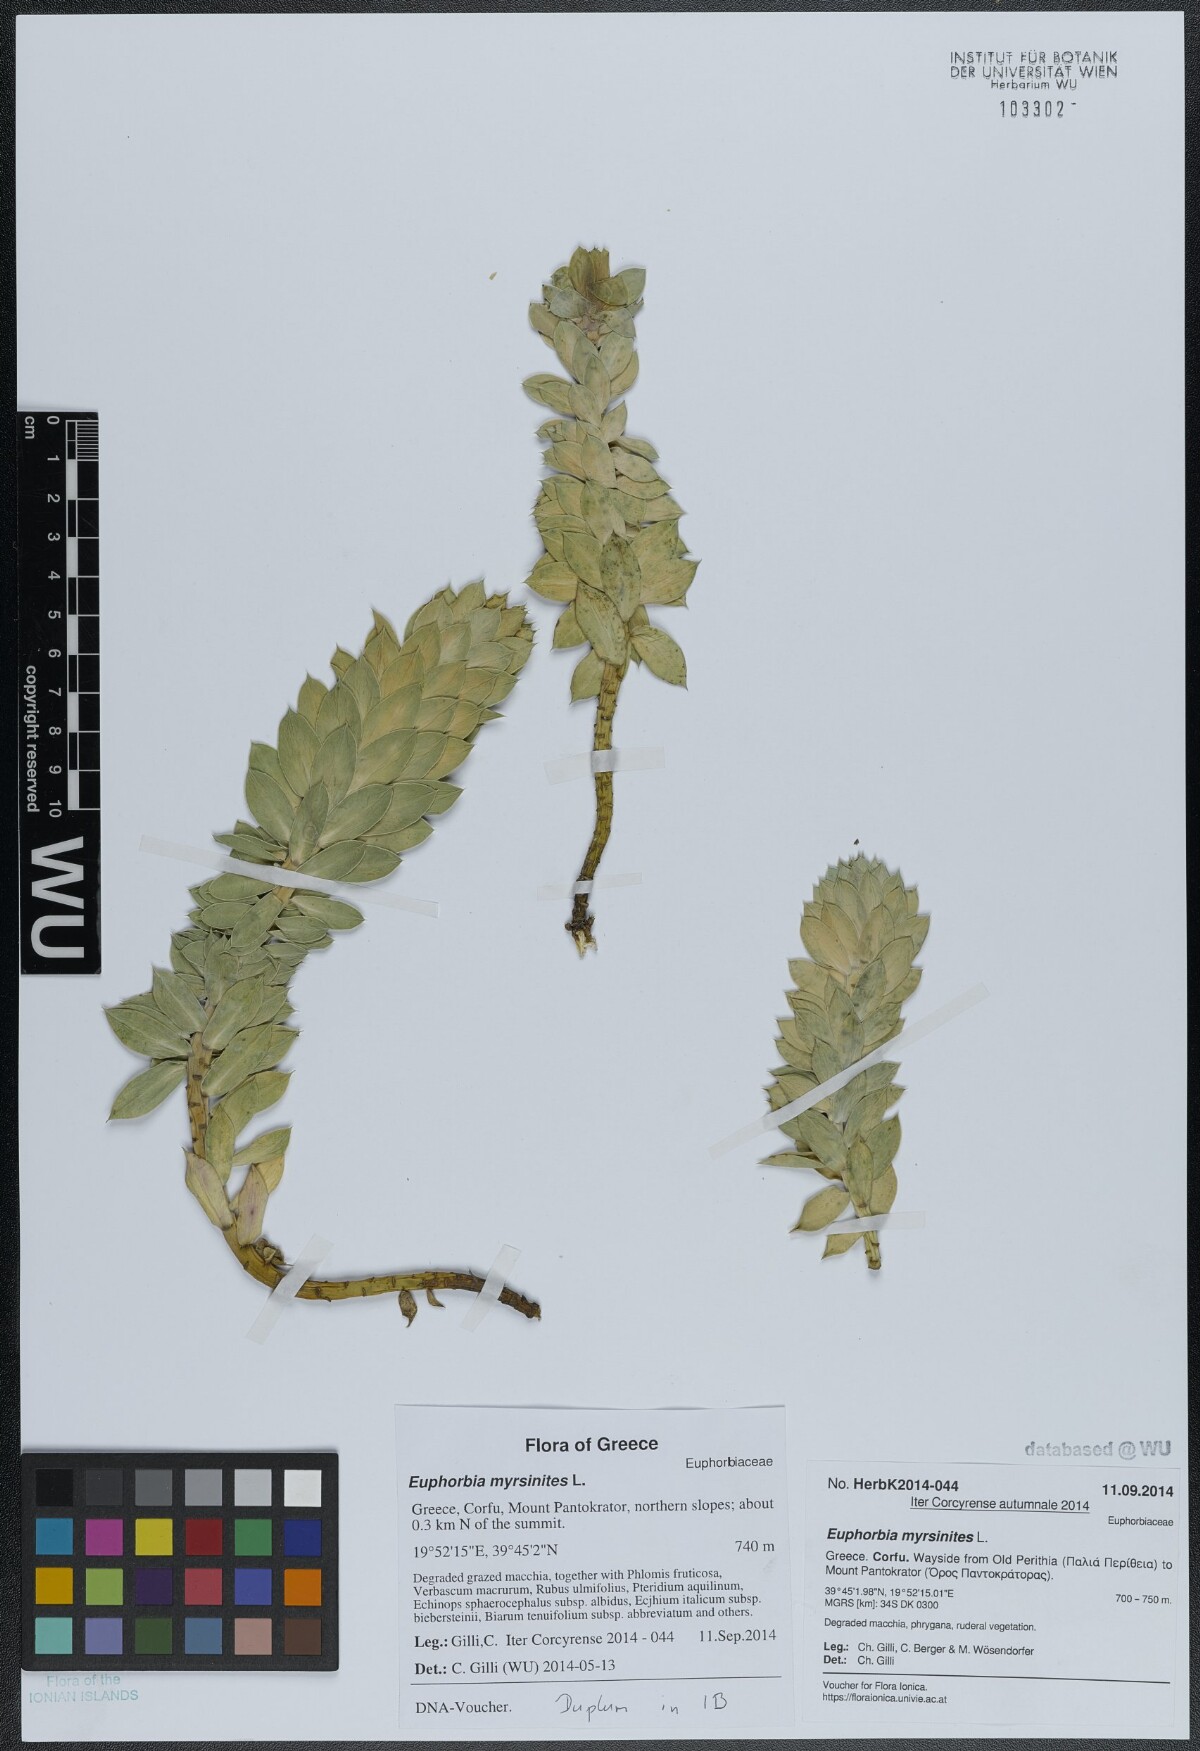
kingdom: Plantae
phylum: Tracheophyta
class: Magnoliopsida
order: Malpighiales
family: Euphorbiaceae
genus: Euphorbia
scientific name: Euphorbia myrsinites
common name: Myrtle spurge
